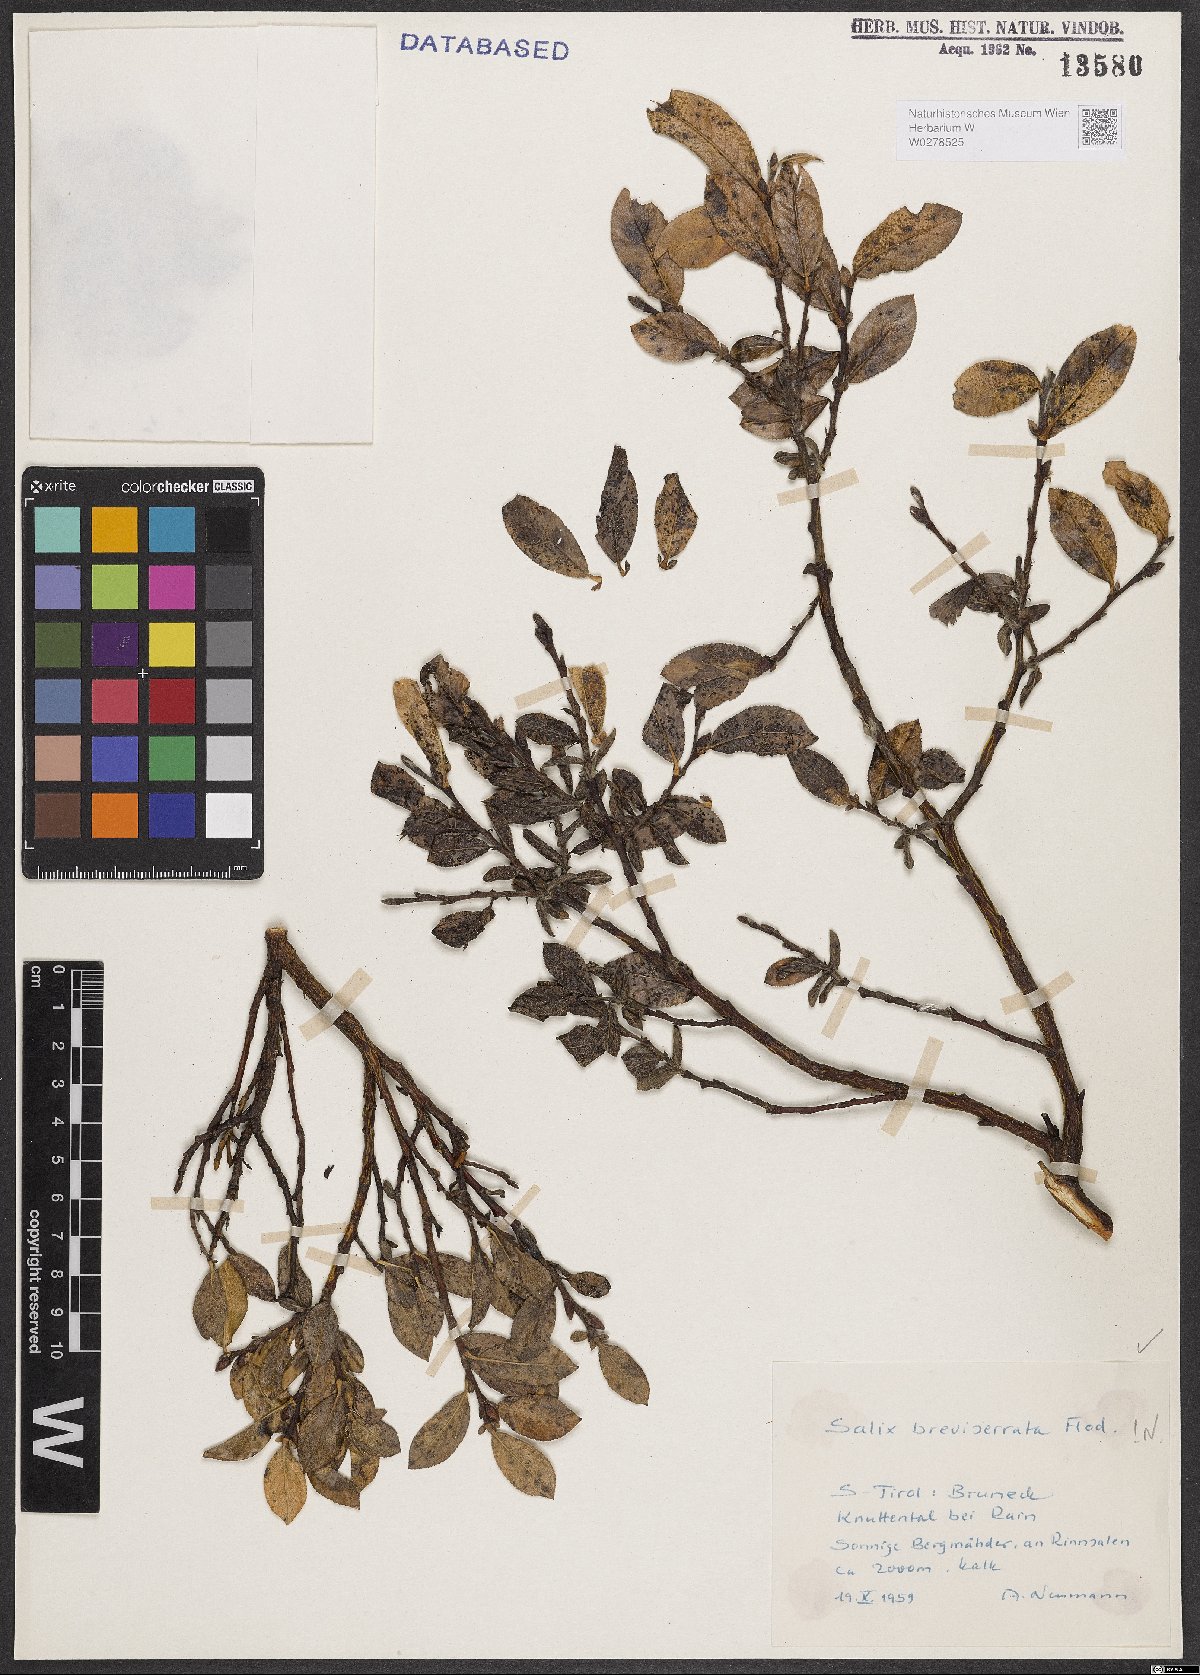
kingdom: Plantae
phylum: Tracheophyta
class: Magnoliopsida
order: Malpighiales
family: Salicaceae
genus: Salix
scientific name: Salix breviserrata
